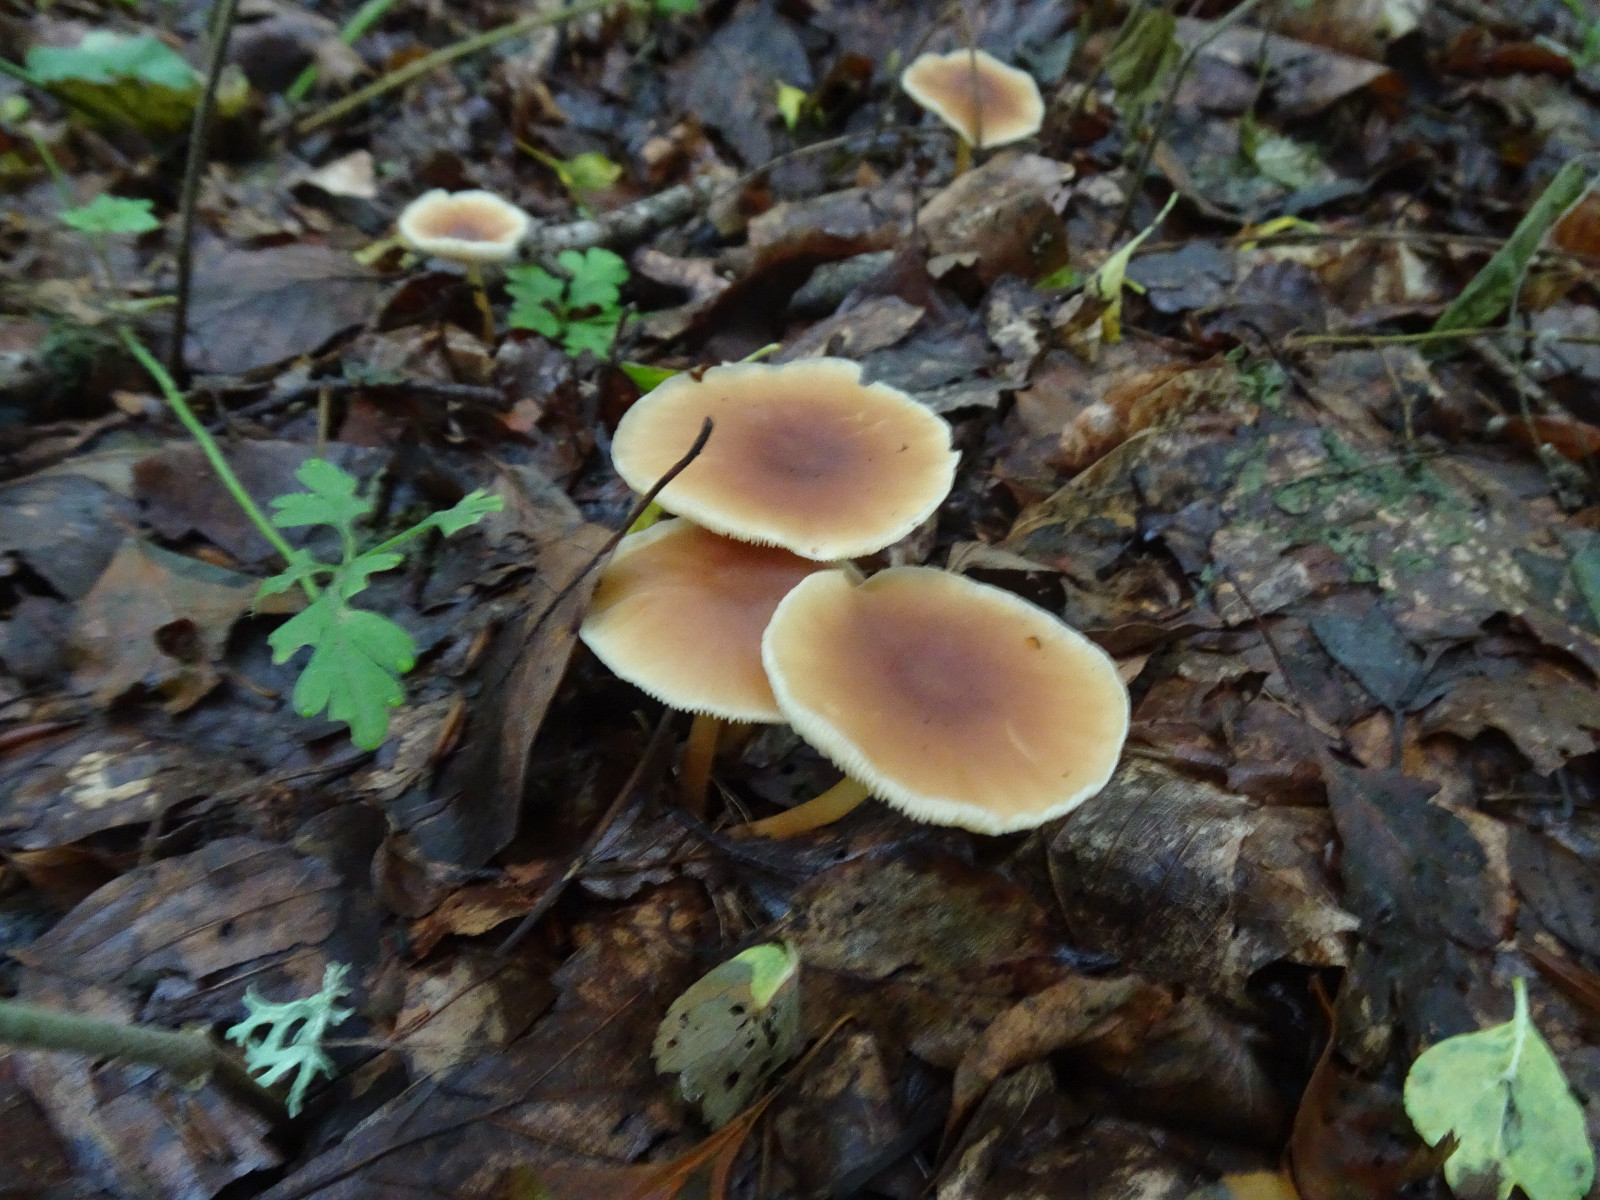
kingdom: Fungi
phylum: Basidiomycota
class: Agaricomycetes
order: Agaricales
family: Tricholomataceae
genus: Infundibulicybe
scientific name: Infundibulicybe gibba
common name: almindelig tragthat
